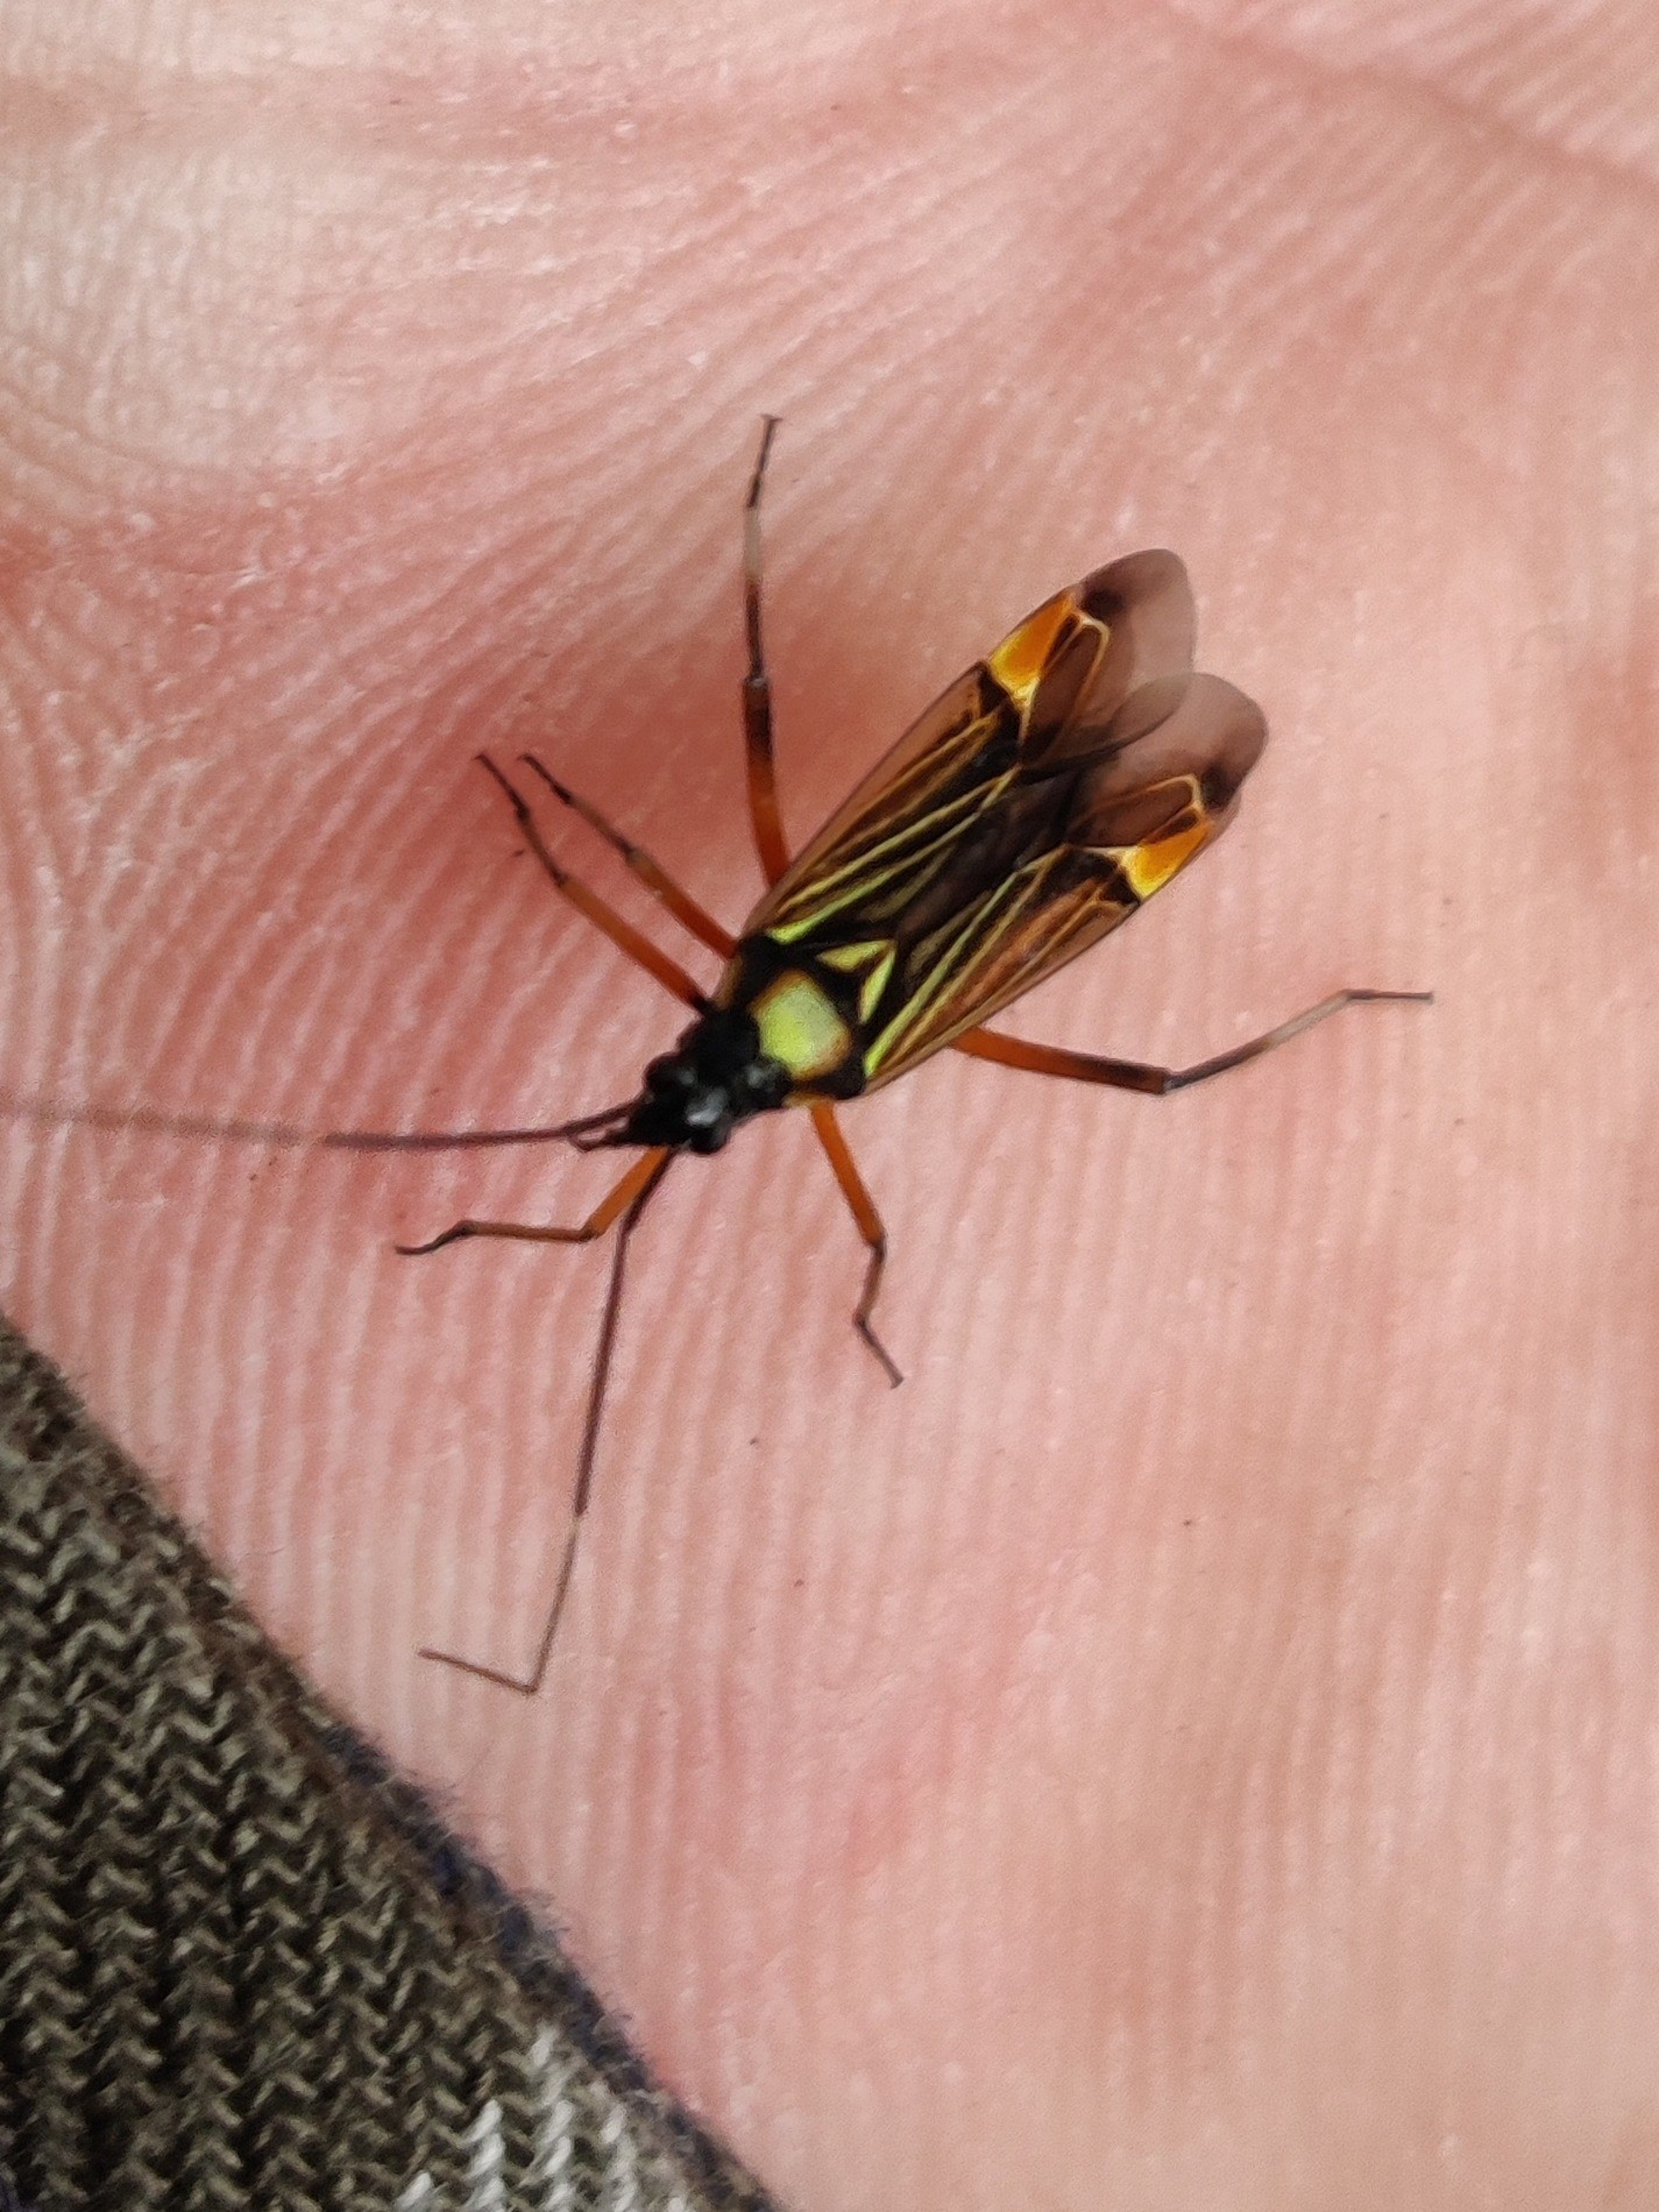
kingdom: Animalia
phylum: Arthropoda
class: Insecta
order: Hemiptera
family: Miridae
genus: Miris
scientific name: Miris striatus
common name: Gulstribet egetæge
